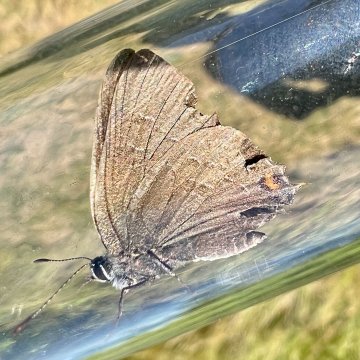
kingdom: Animalia
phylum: Arthropoda
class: Insecta
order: Lepidoptera
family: Lycaenidae
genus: Satyrium
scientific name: Satyrium calanus
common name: Banded Hairstreak
